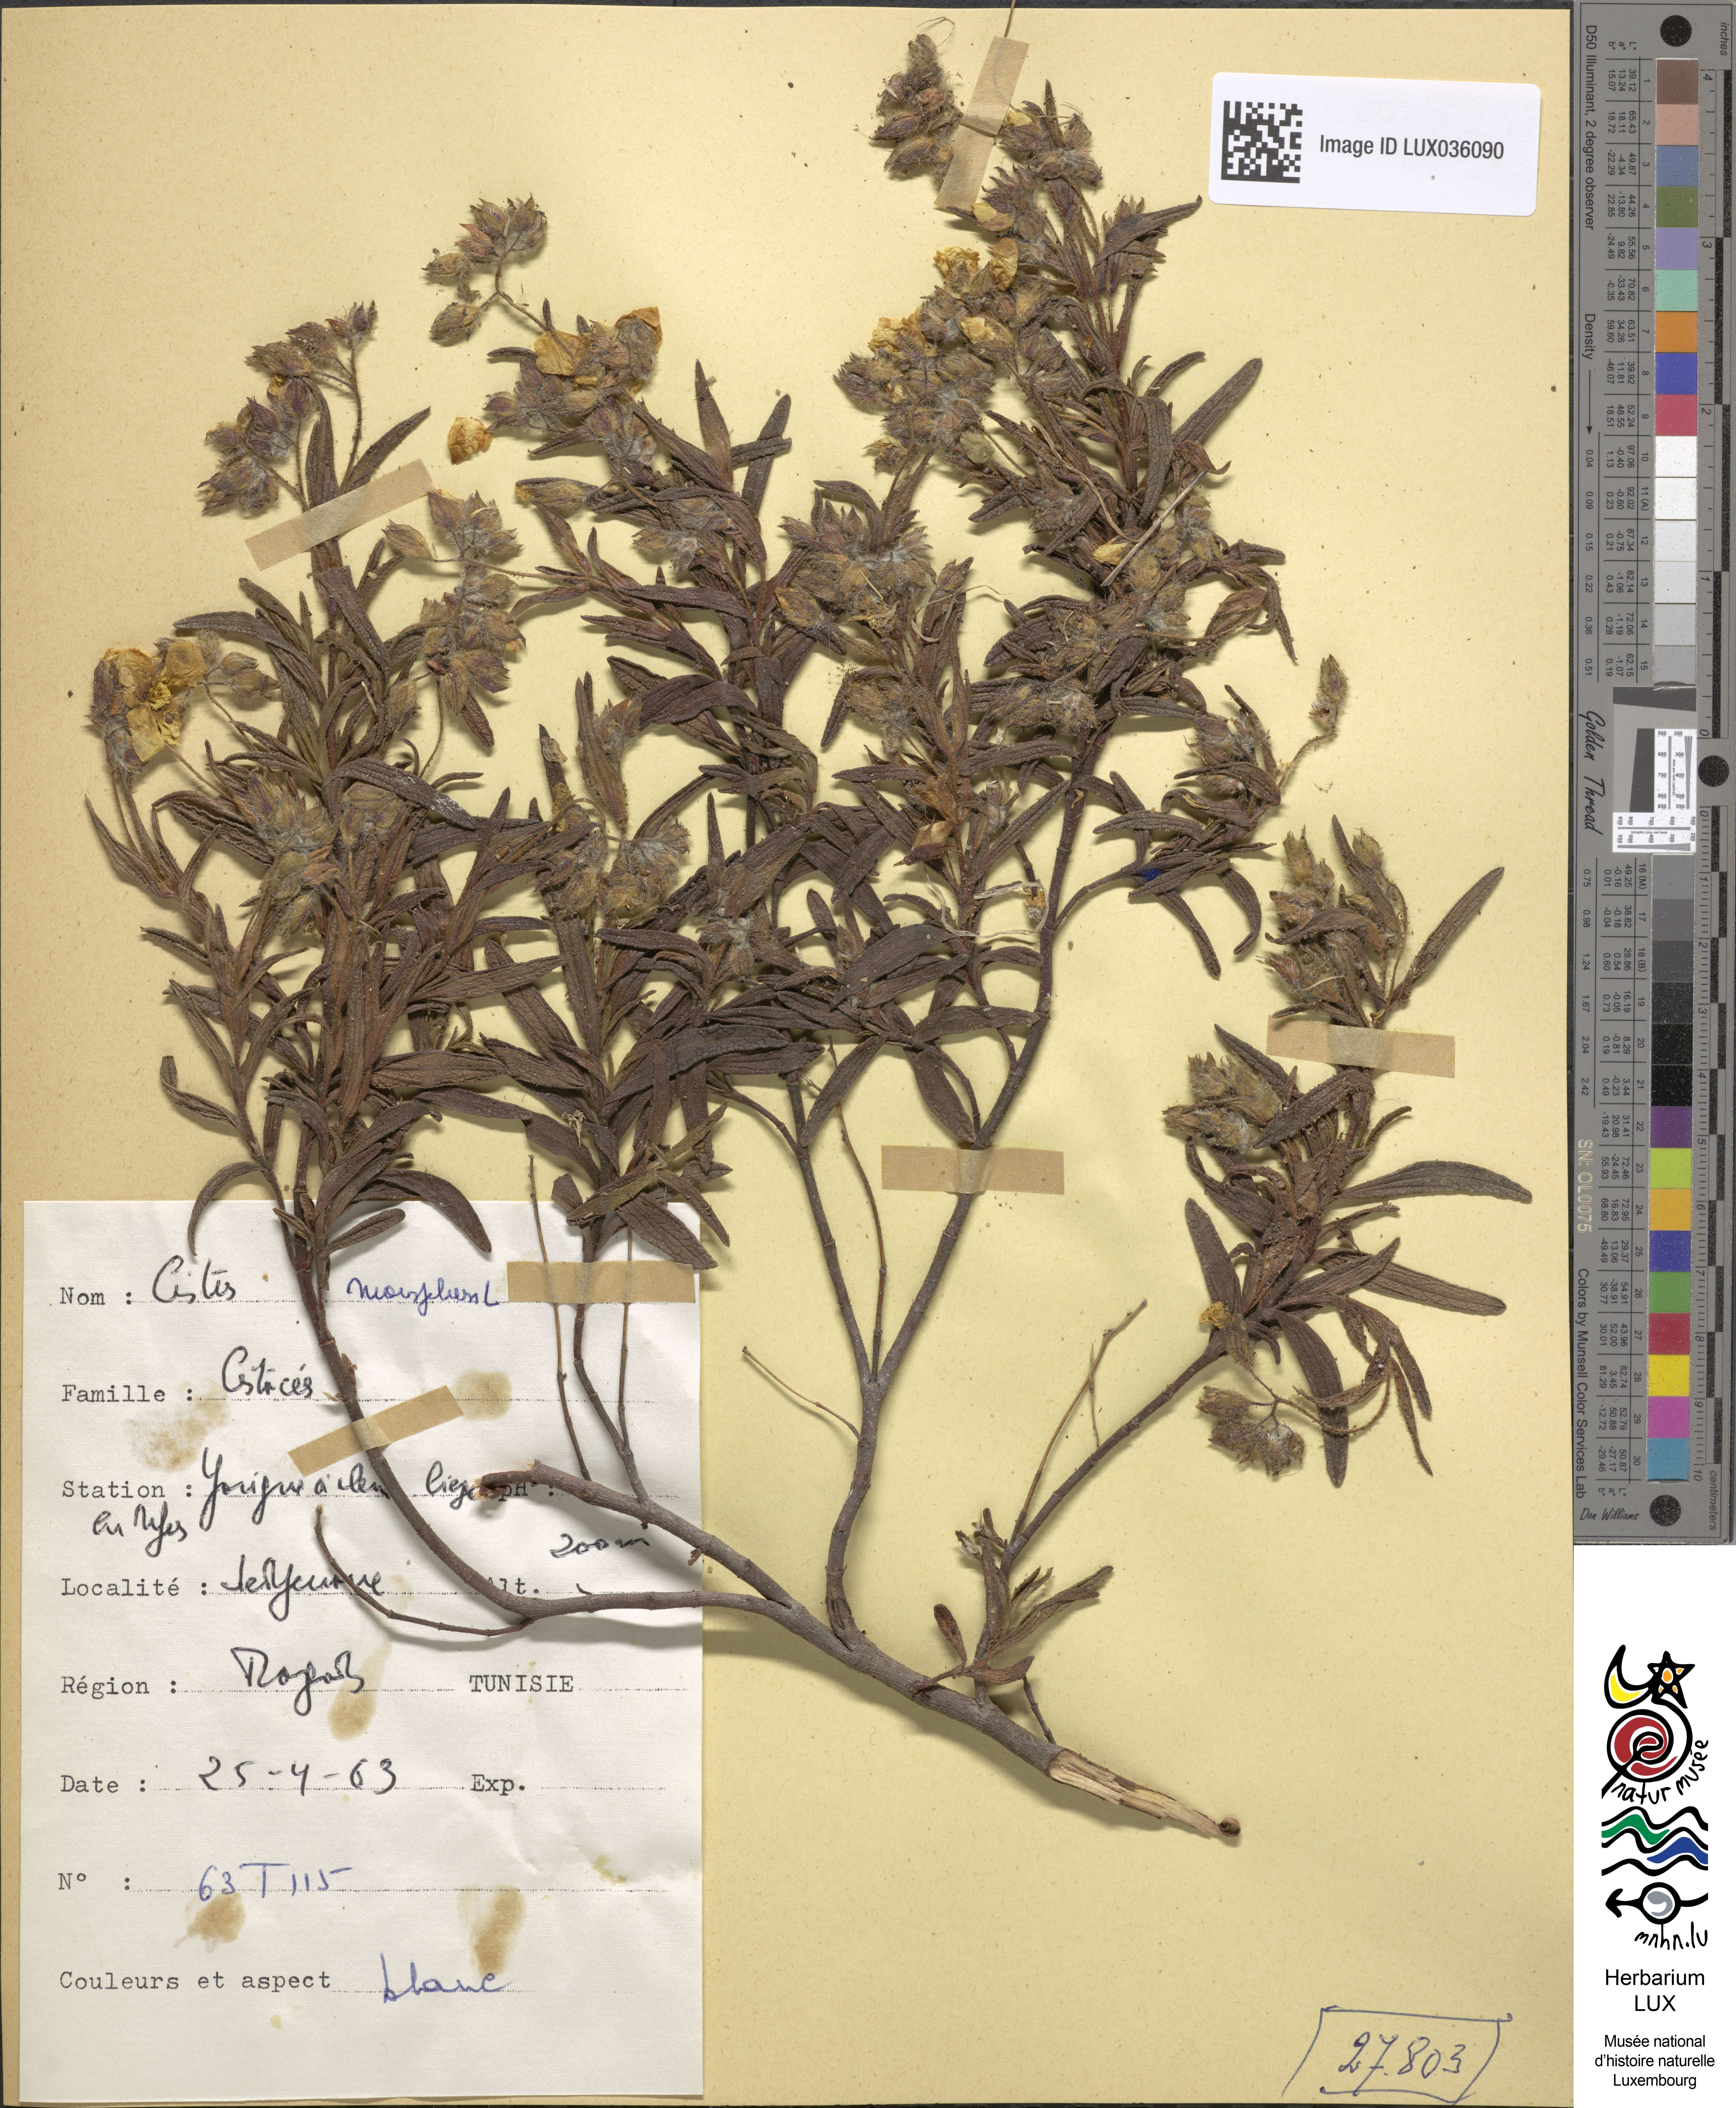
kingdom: Plantae
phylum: Tracheophyta
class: Magnoliopsida
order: Malvales
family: Cistaceae
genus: Cistus
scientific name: Cistus monspeliensis
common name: Montpelier cistus
